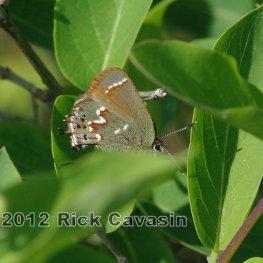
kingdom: Animalia
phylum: Arthropoda
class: Insecta
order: Lepidoptera
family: Lycaenidae
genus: Mitoura
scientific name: Mitoura gryneus
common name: Juniper Hairstreak
